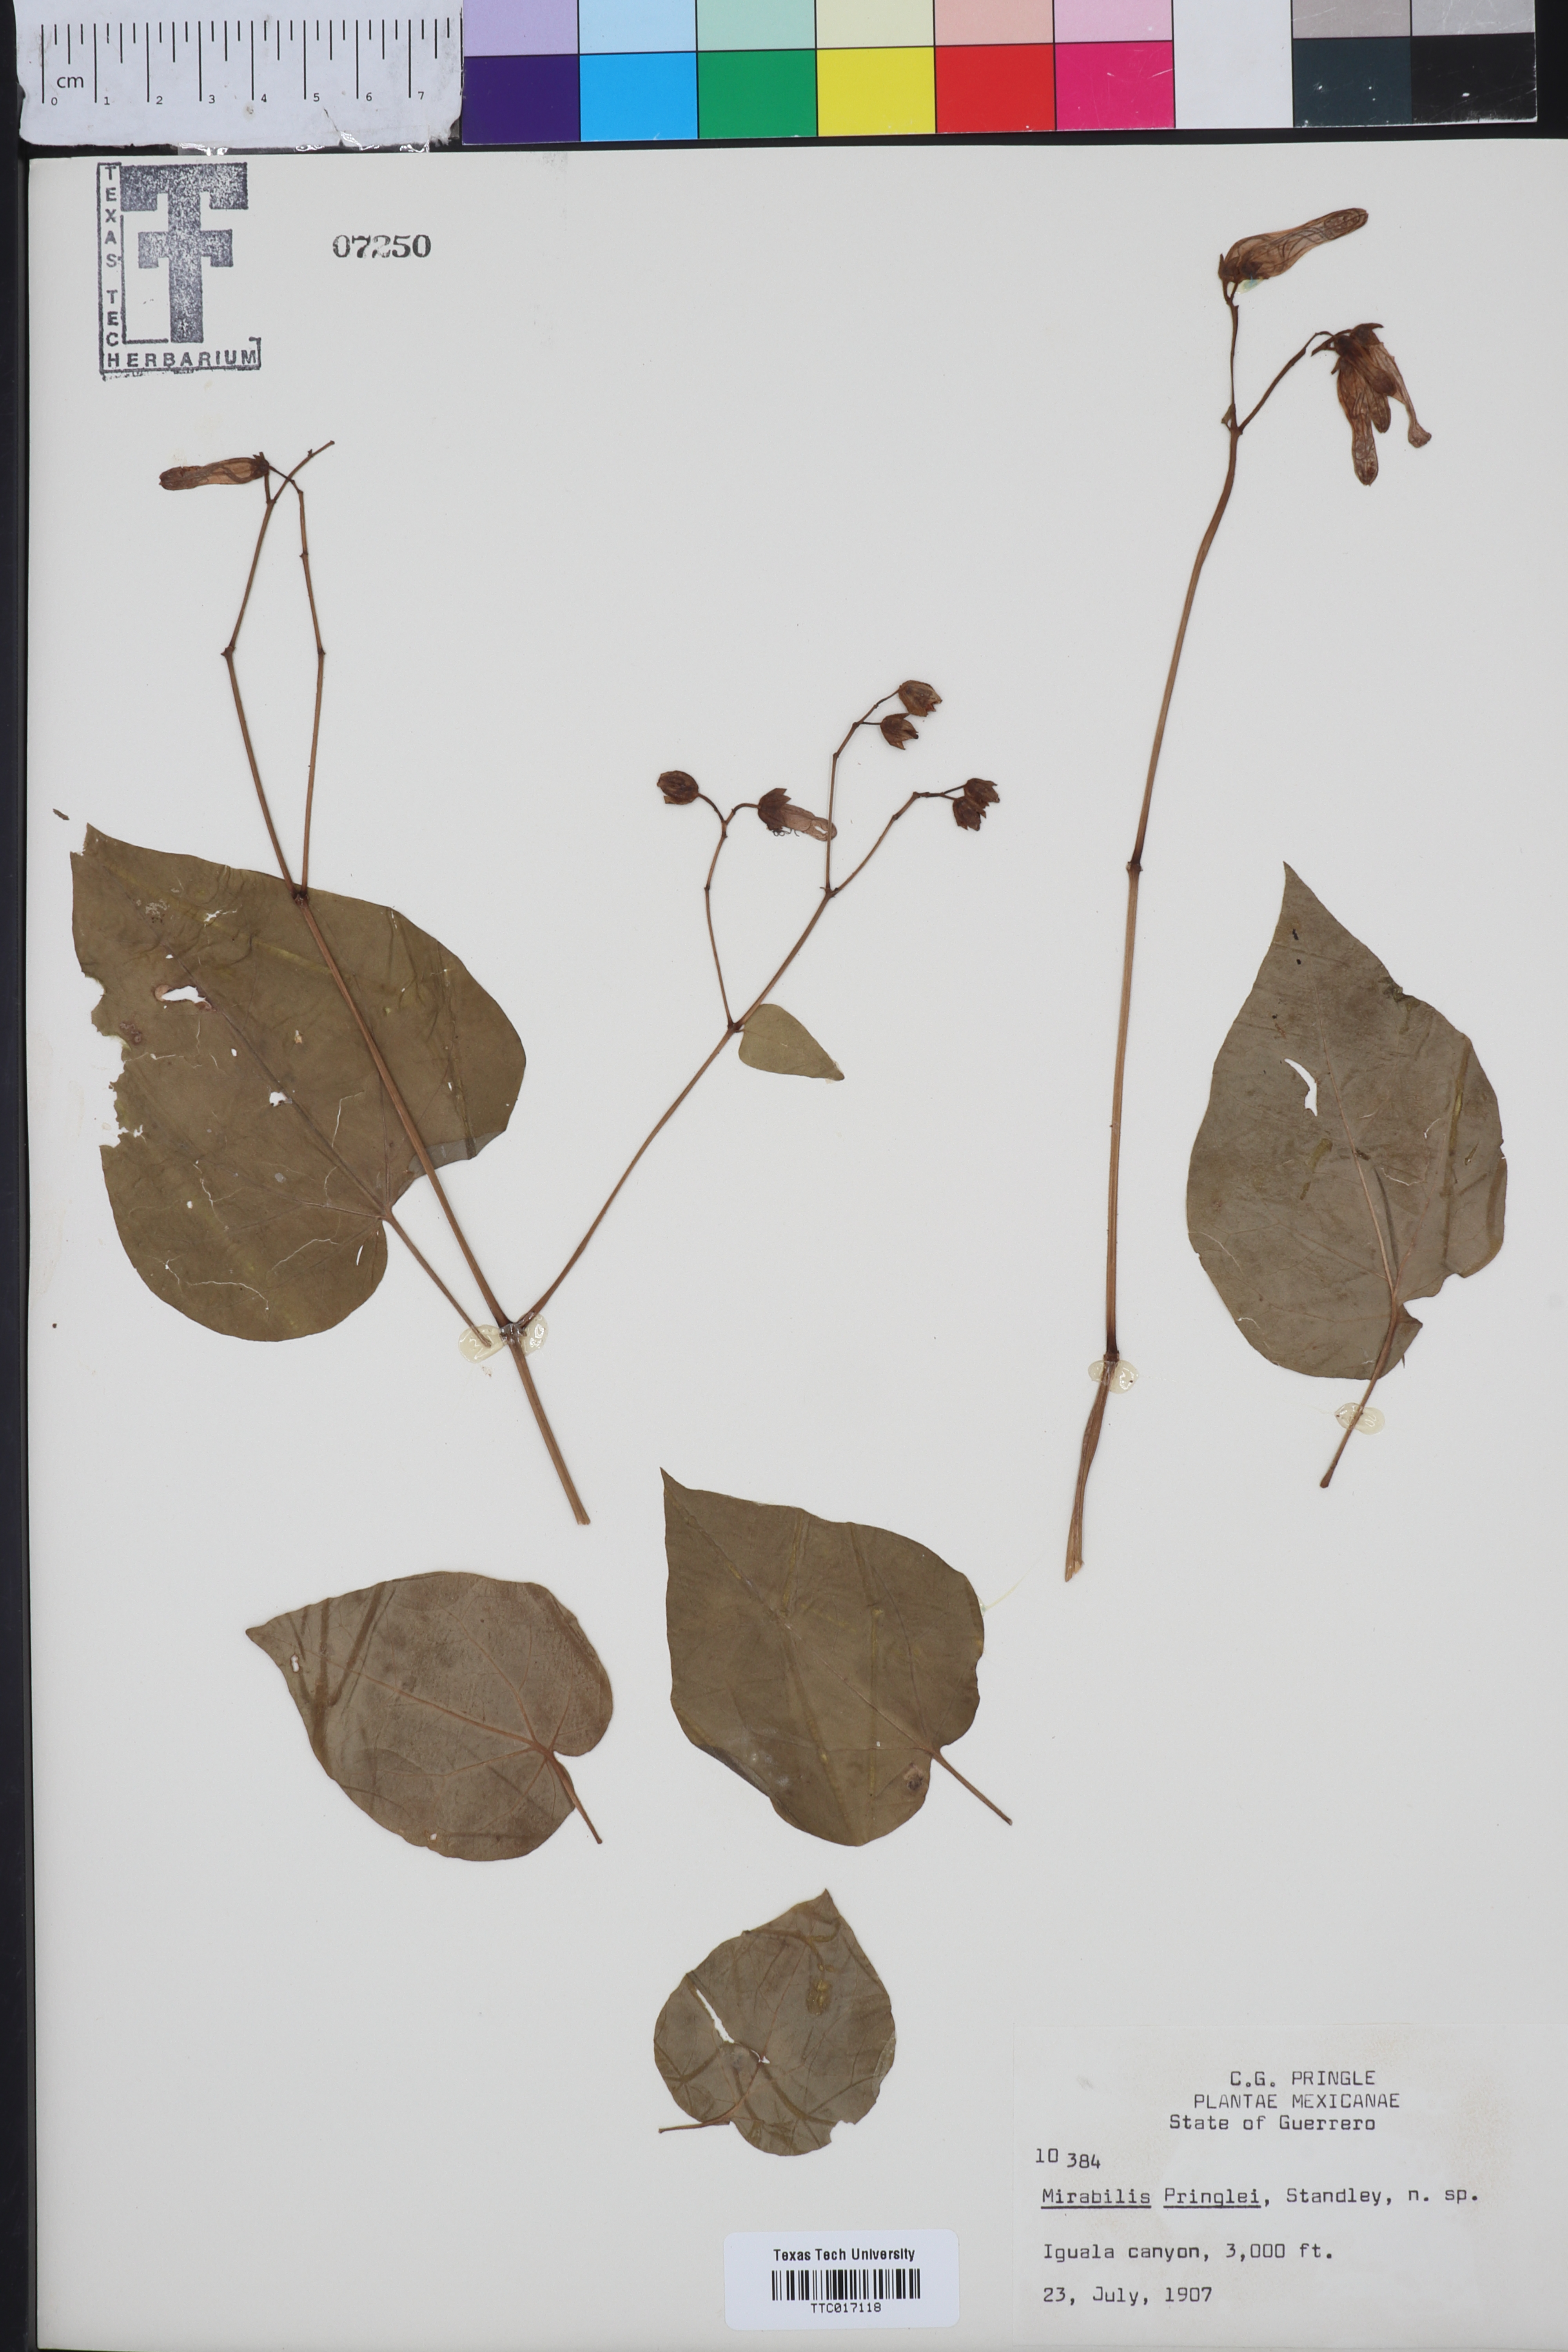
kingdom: Plantae
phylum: Tracheophyta
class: Magnoliopsida
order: Caryophyllales
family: Nyctaginaceae
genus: Mirabilis
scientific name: Mirabilis pringlei
